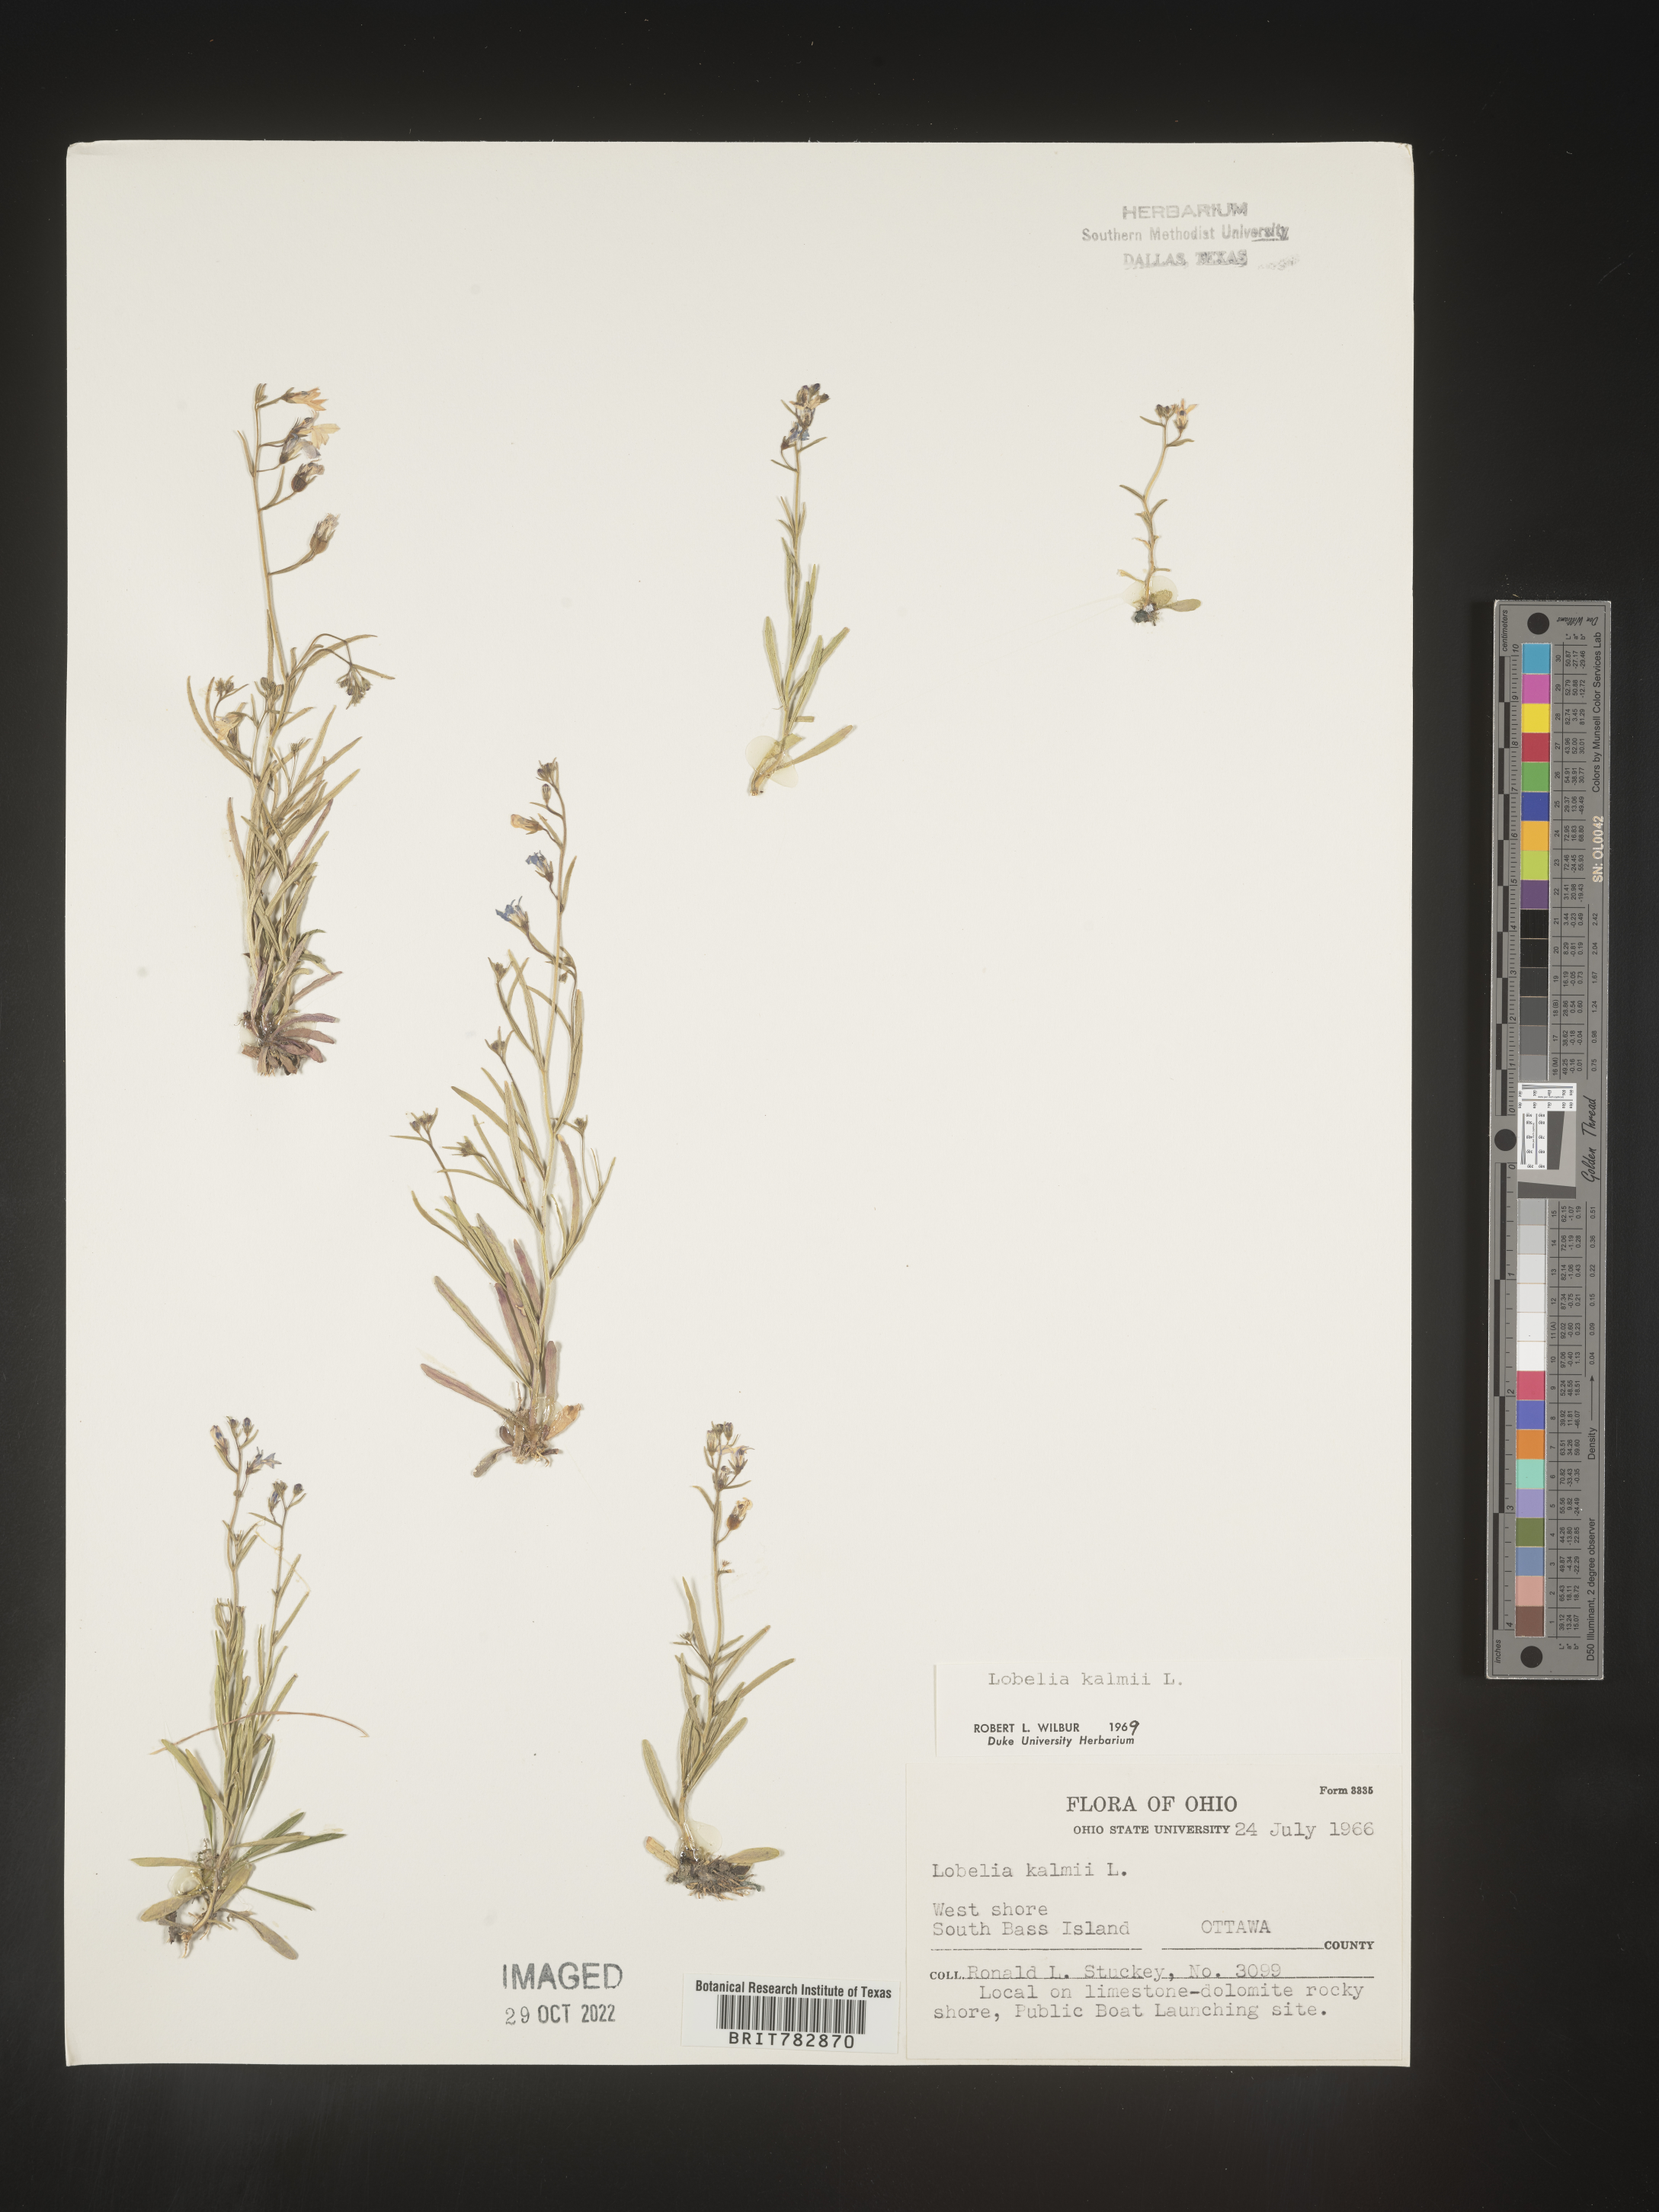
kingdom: Plantae
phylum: Tracheophyta
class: Magnoliopsida
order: Asterales
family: Campanulaceae
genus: Lobelia
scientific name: Lobelia
